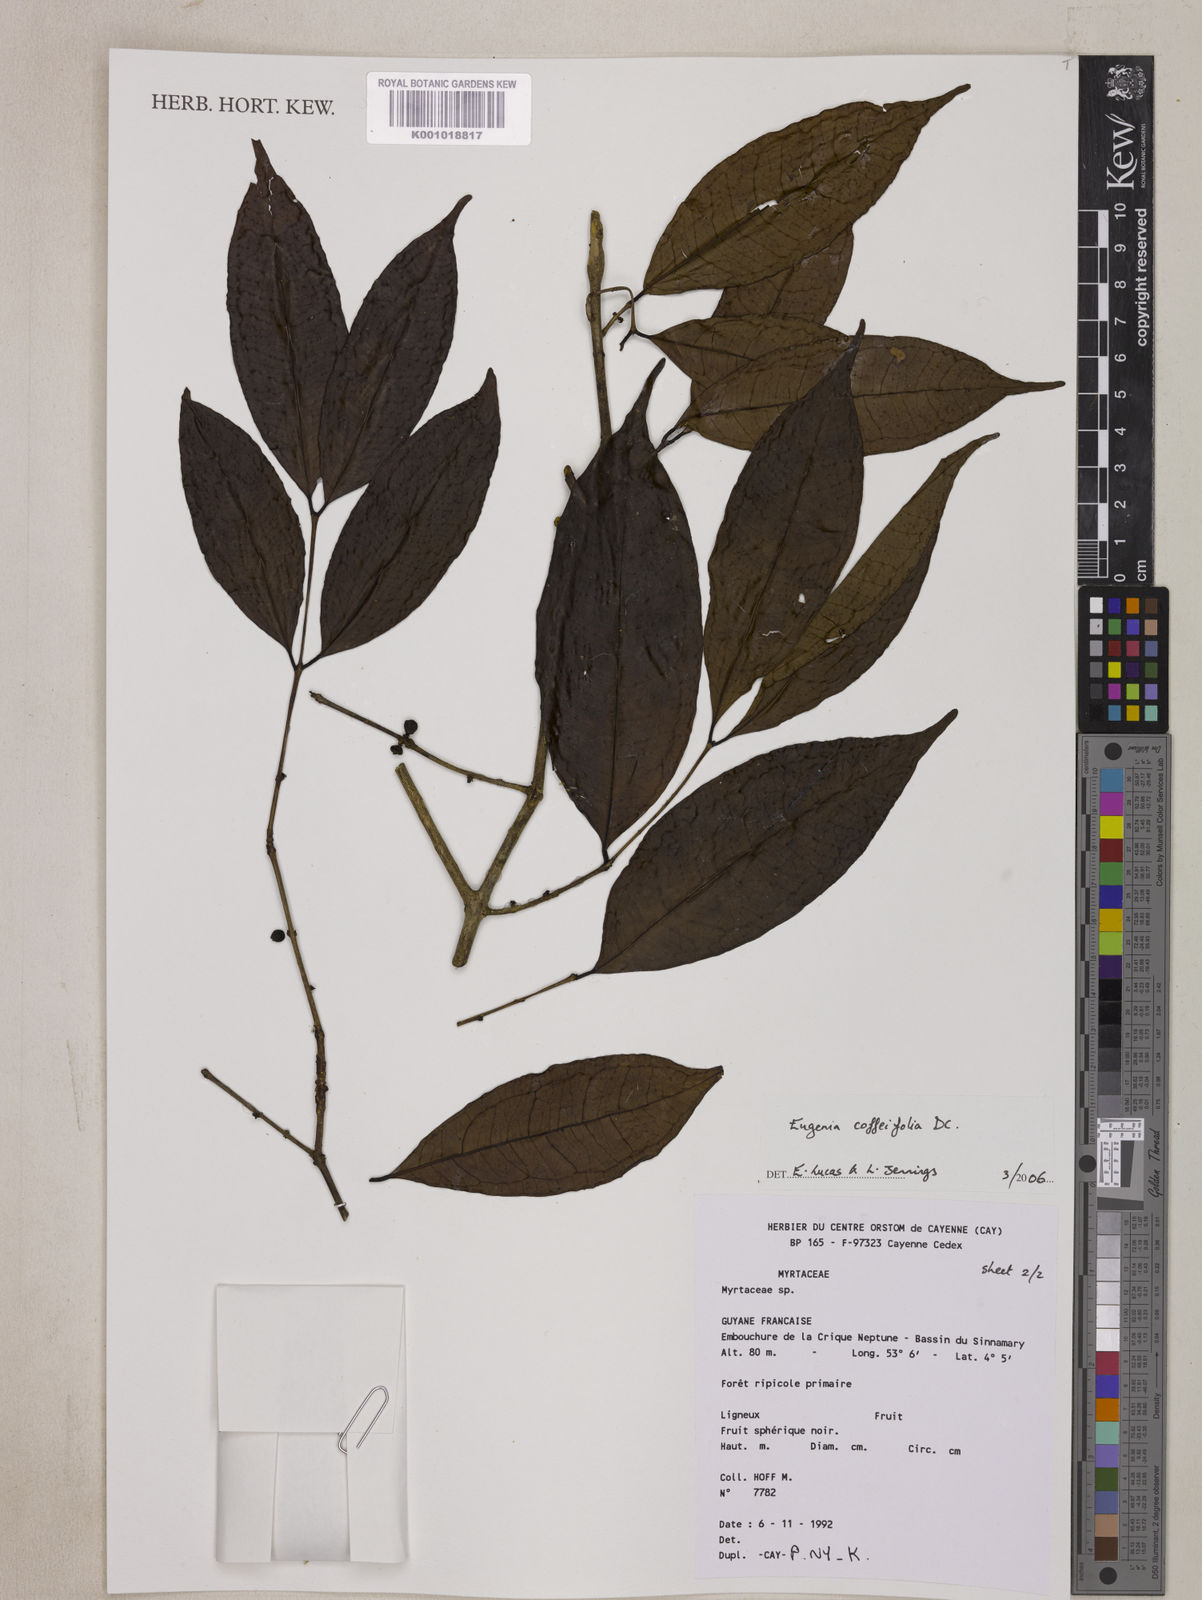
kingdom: Plantae
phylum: Tracheophyta
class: Magnoliopsida
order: Myrtales
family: Myrtaceae
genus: Eugenia
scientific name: Eugenia coffeifolia
